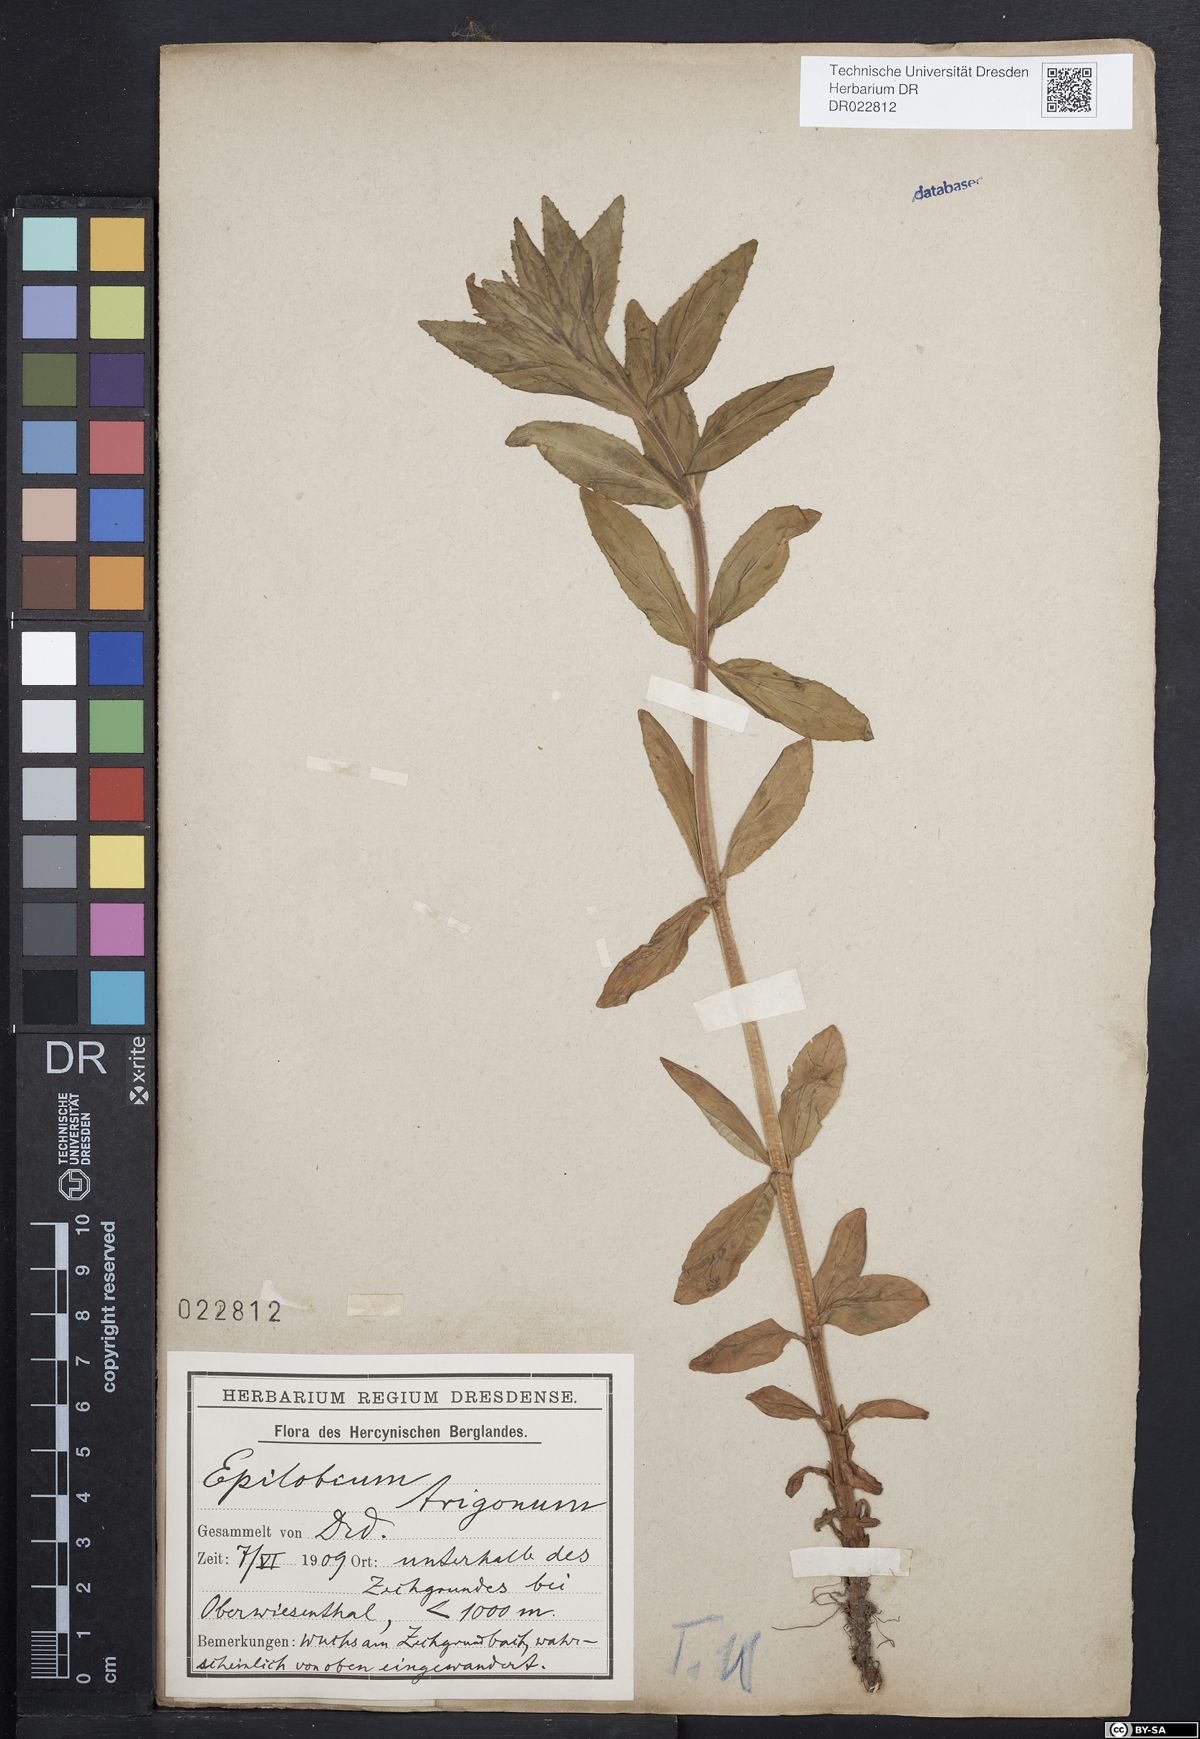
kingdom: Plantae
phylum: Tracheophyta
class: Magnoliopsida
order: Myrtales
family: Onagraceae
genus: Epilobium
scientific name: Epilobium alpestre
